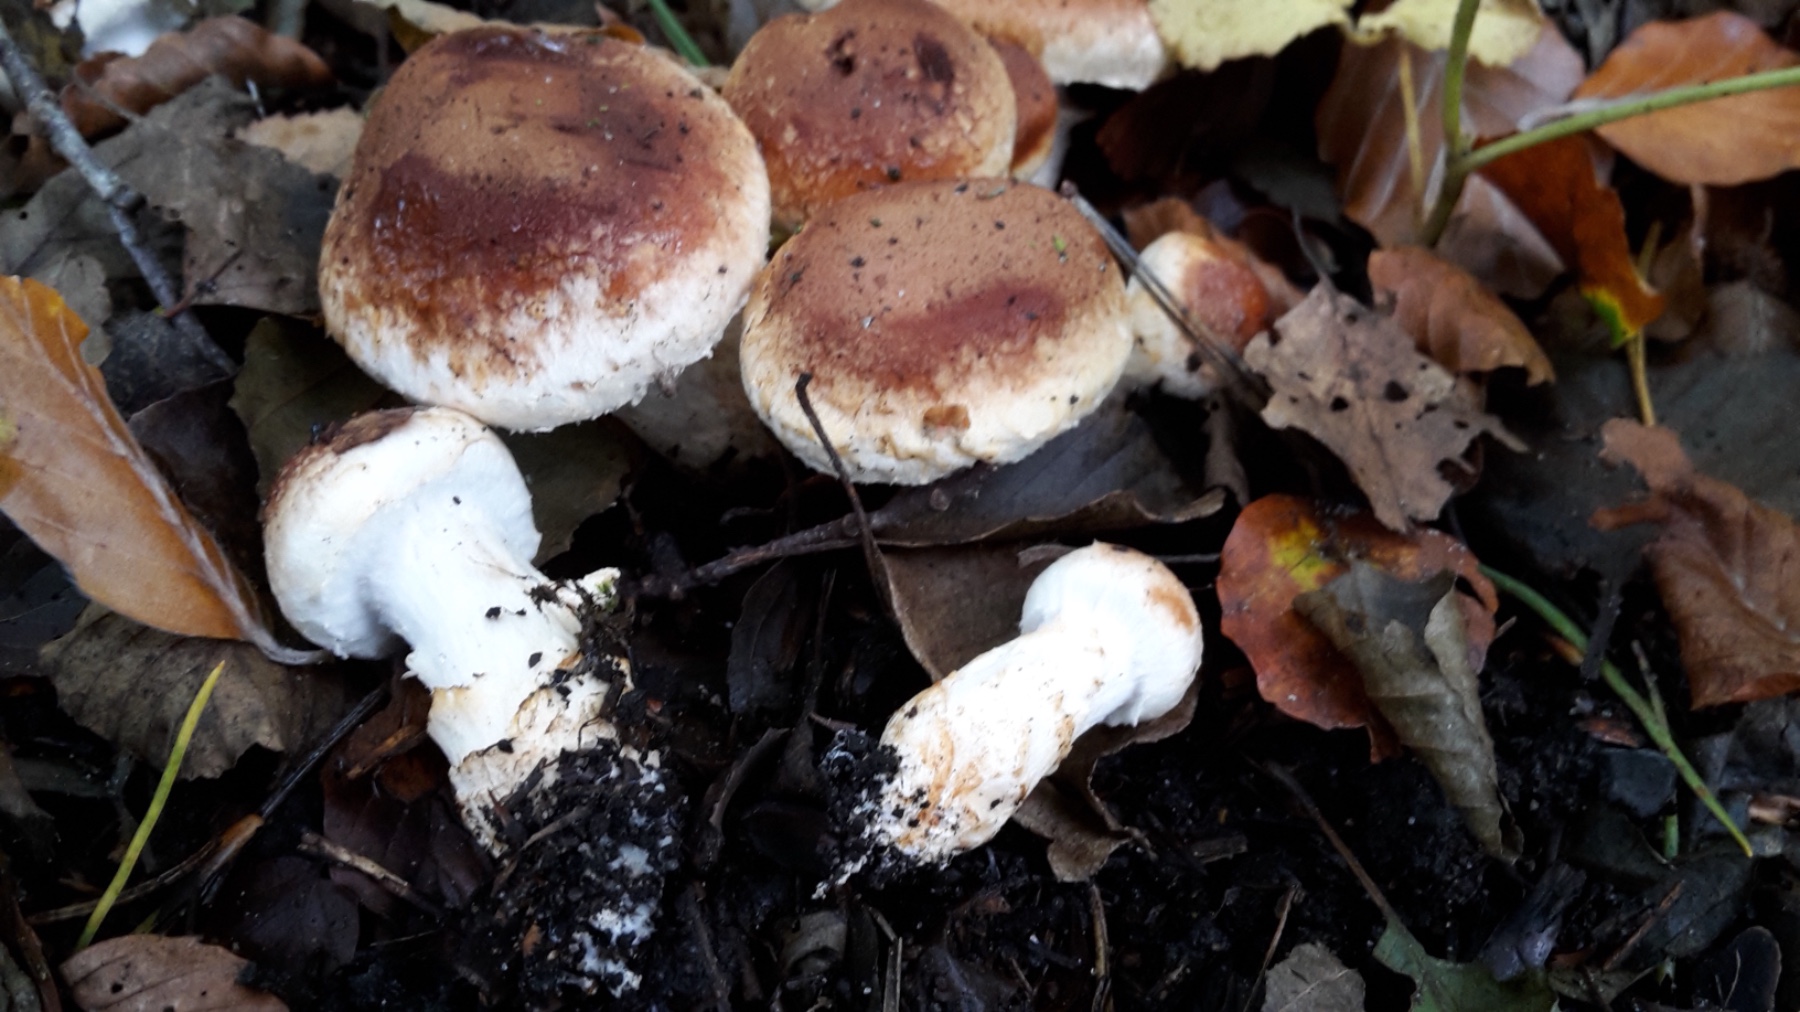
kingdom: Fungi
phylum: Basidiomycota
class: Agaricomycetes
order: Agaricales
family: Cortinariaceae
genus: Phlegmacium
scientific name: Phlegmacium vulpinum
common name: ringbæltet slørhat
